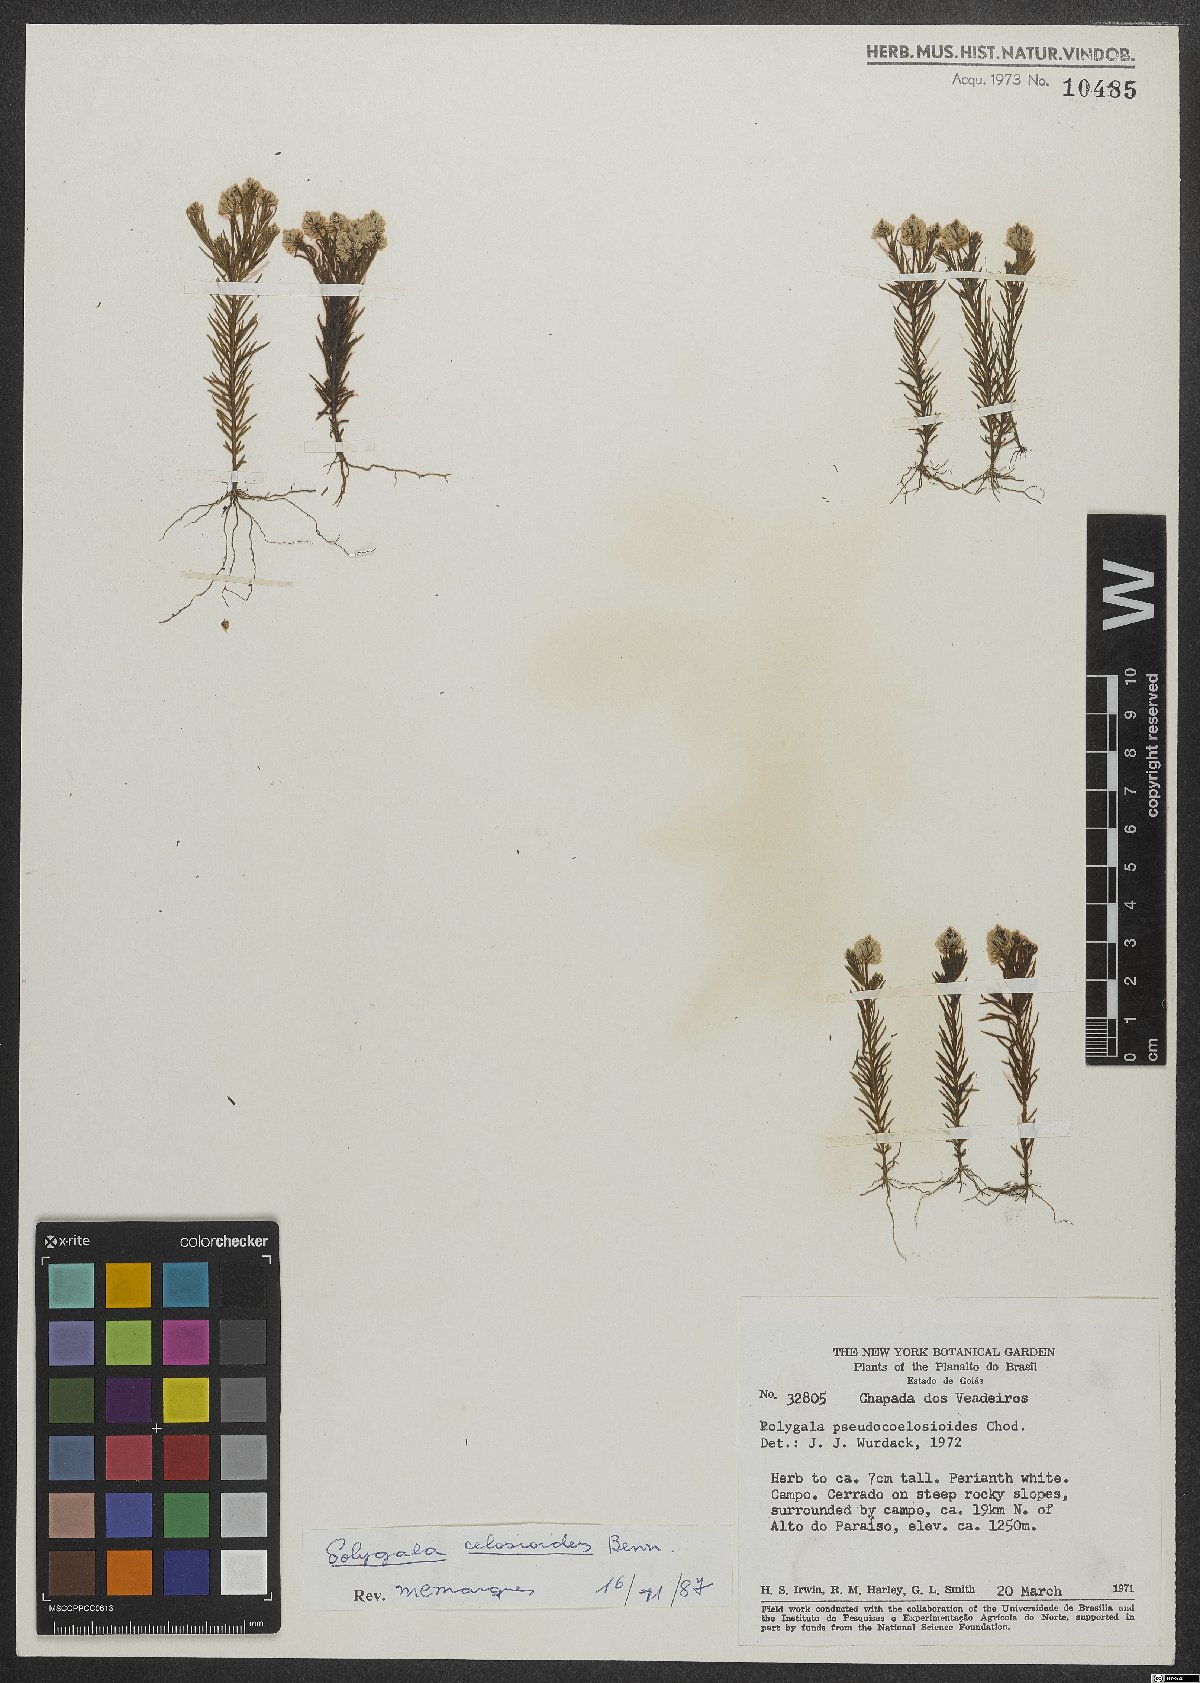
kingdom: Plantae
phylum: Tracheophyta
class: Magnoliopsida
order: Fabales
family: Polygalaceae
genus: Polygala
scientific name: Polygala celosioides
